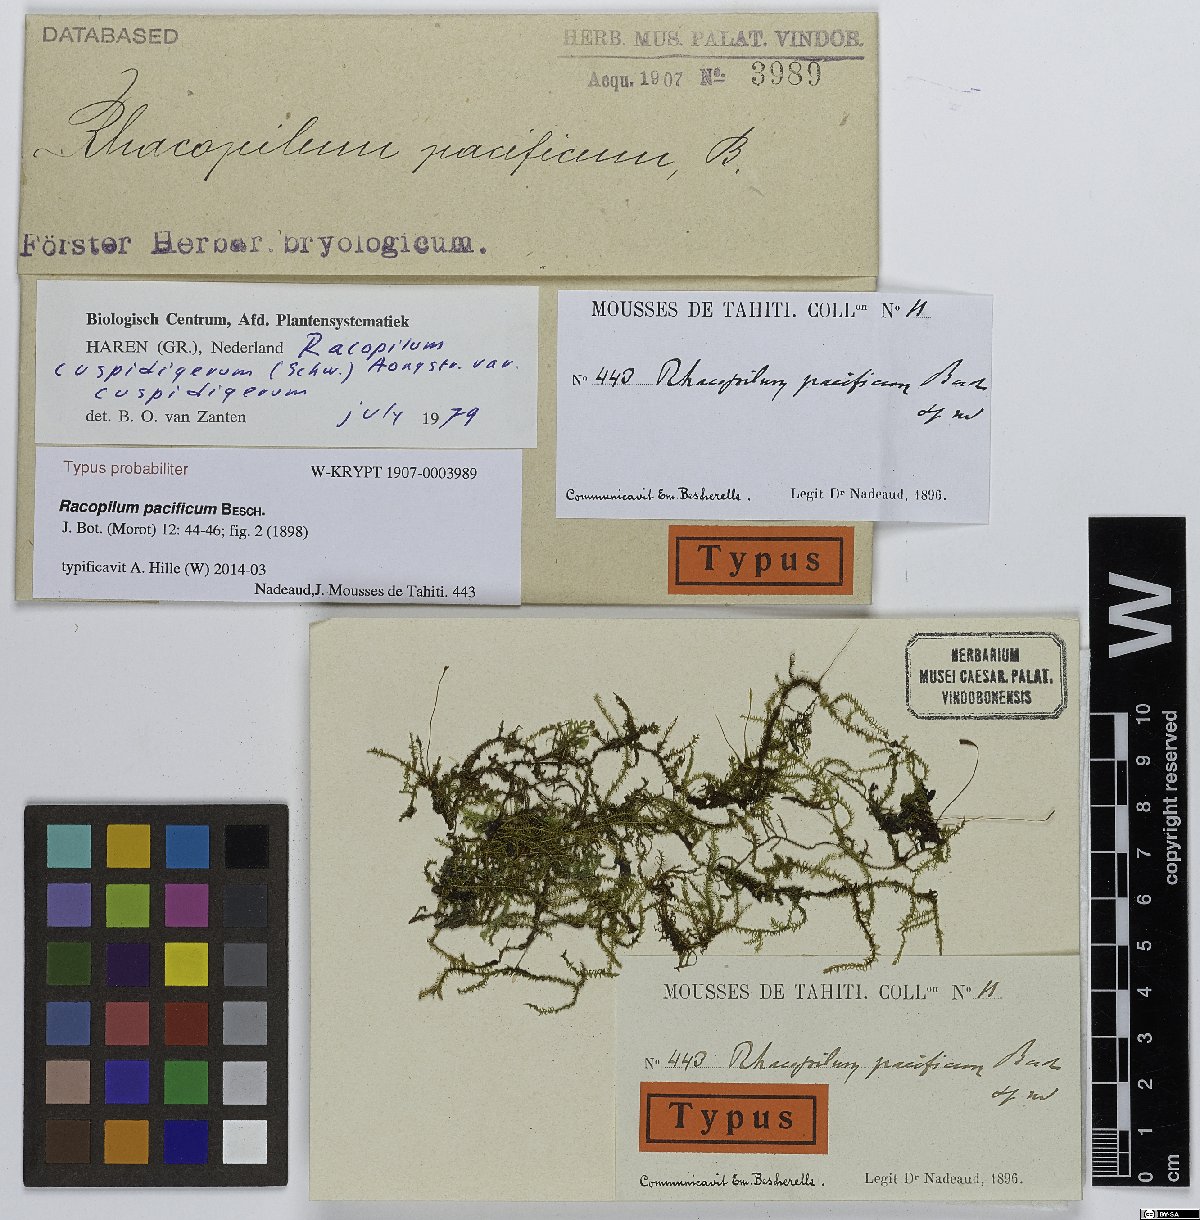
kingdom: Plantae
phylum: Bryophyta
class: Bryopsida
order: Hypnodendrales
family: Racopilaceae
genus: Racopilum
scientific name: Racopilum cuspidigerum
